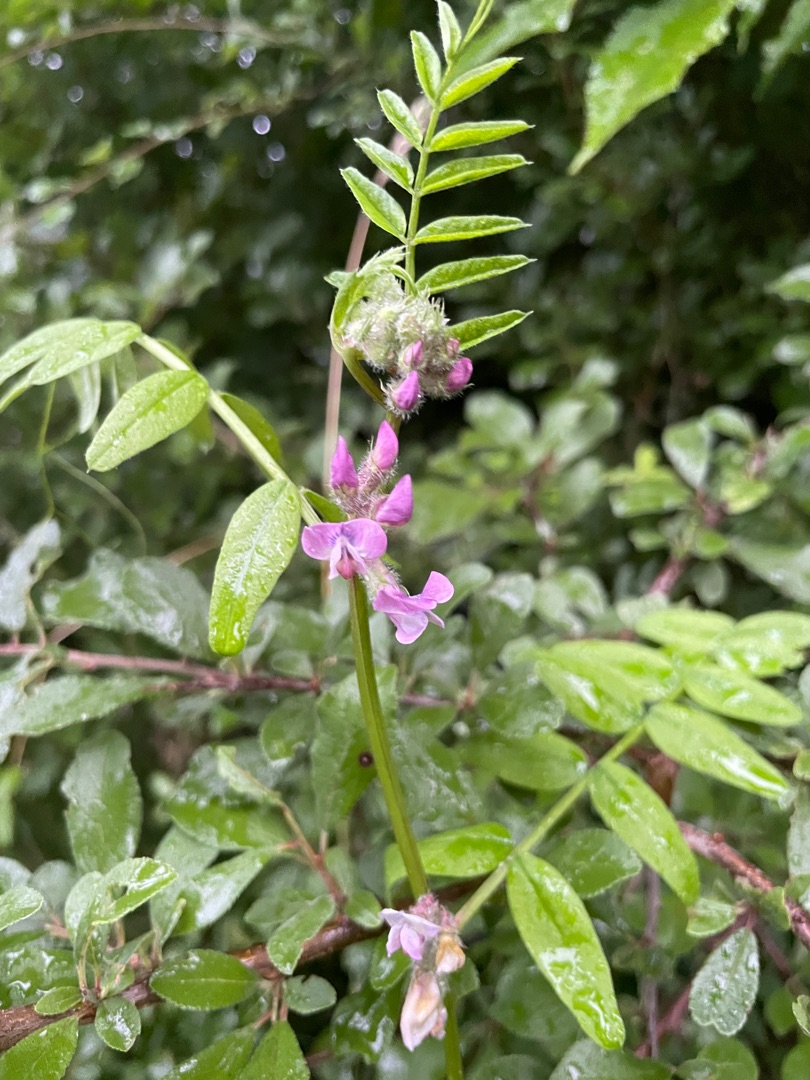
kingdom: Plantae
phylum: Tracheophyta
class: Magnoliopsida
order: Fabales
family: Fabaceae
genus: Vicia
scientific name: Vicia sepium
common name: Gærde-vikke
